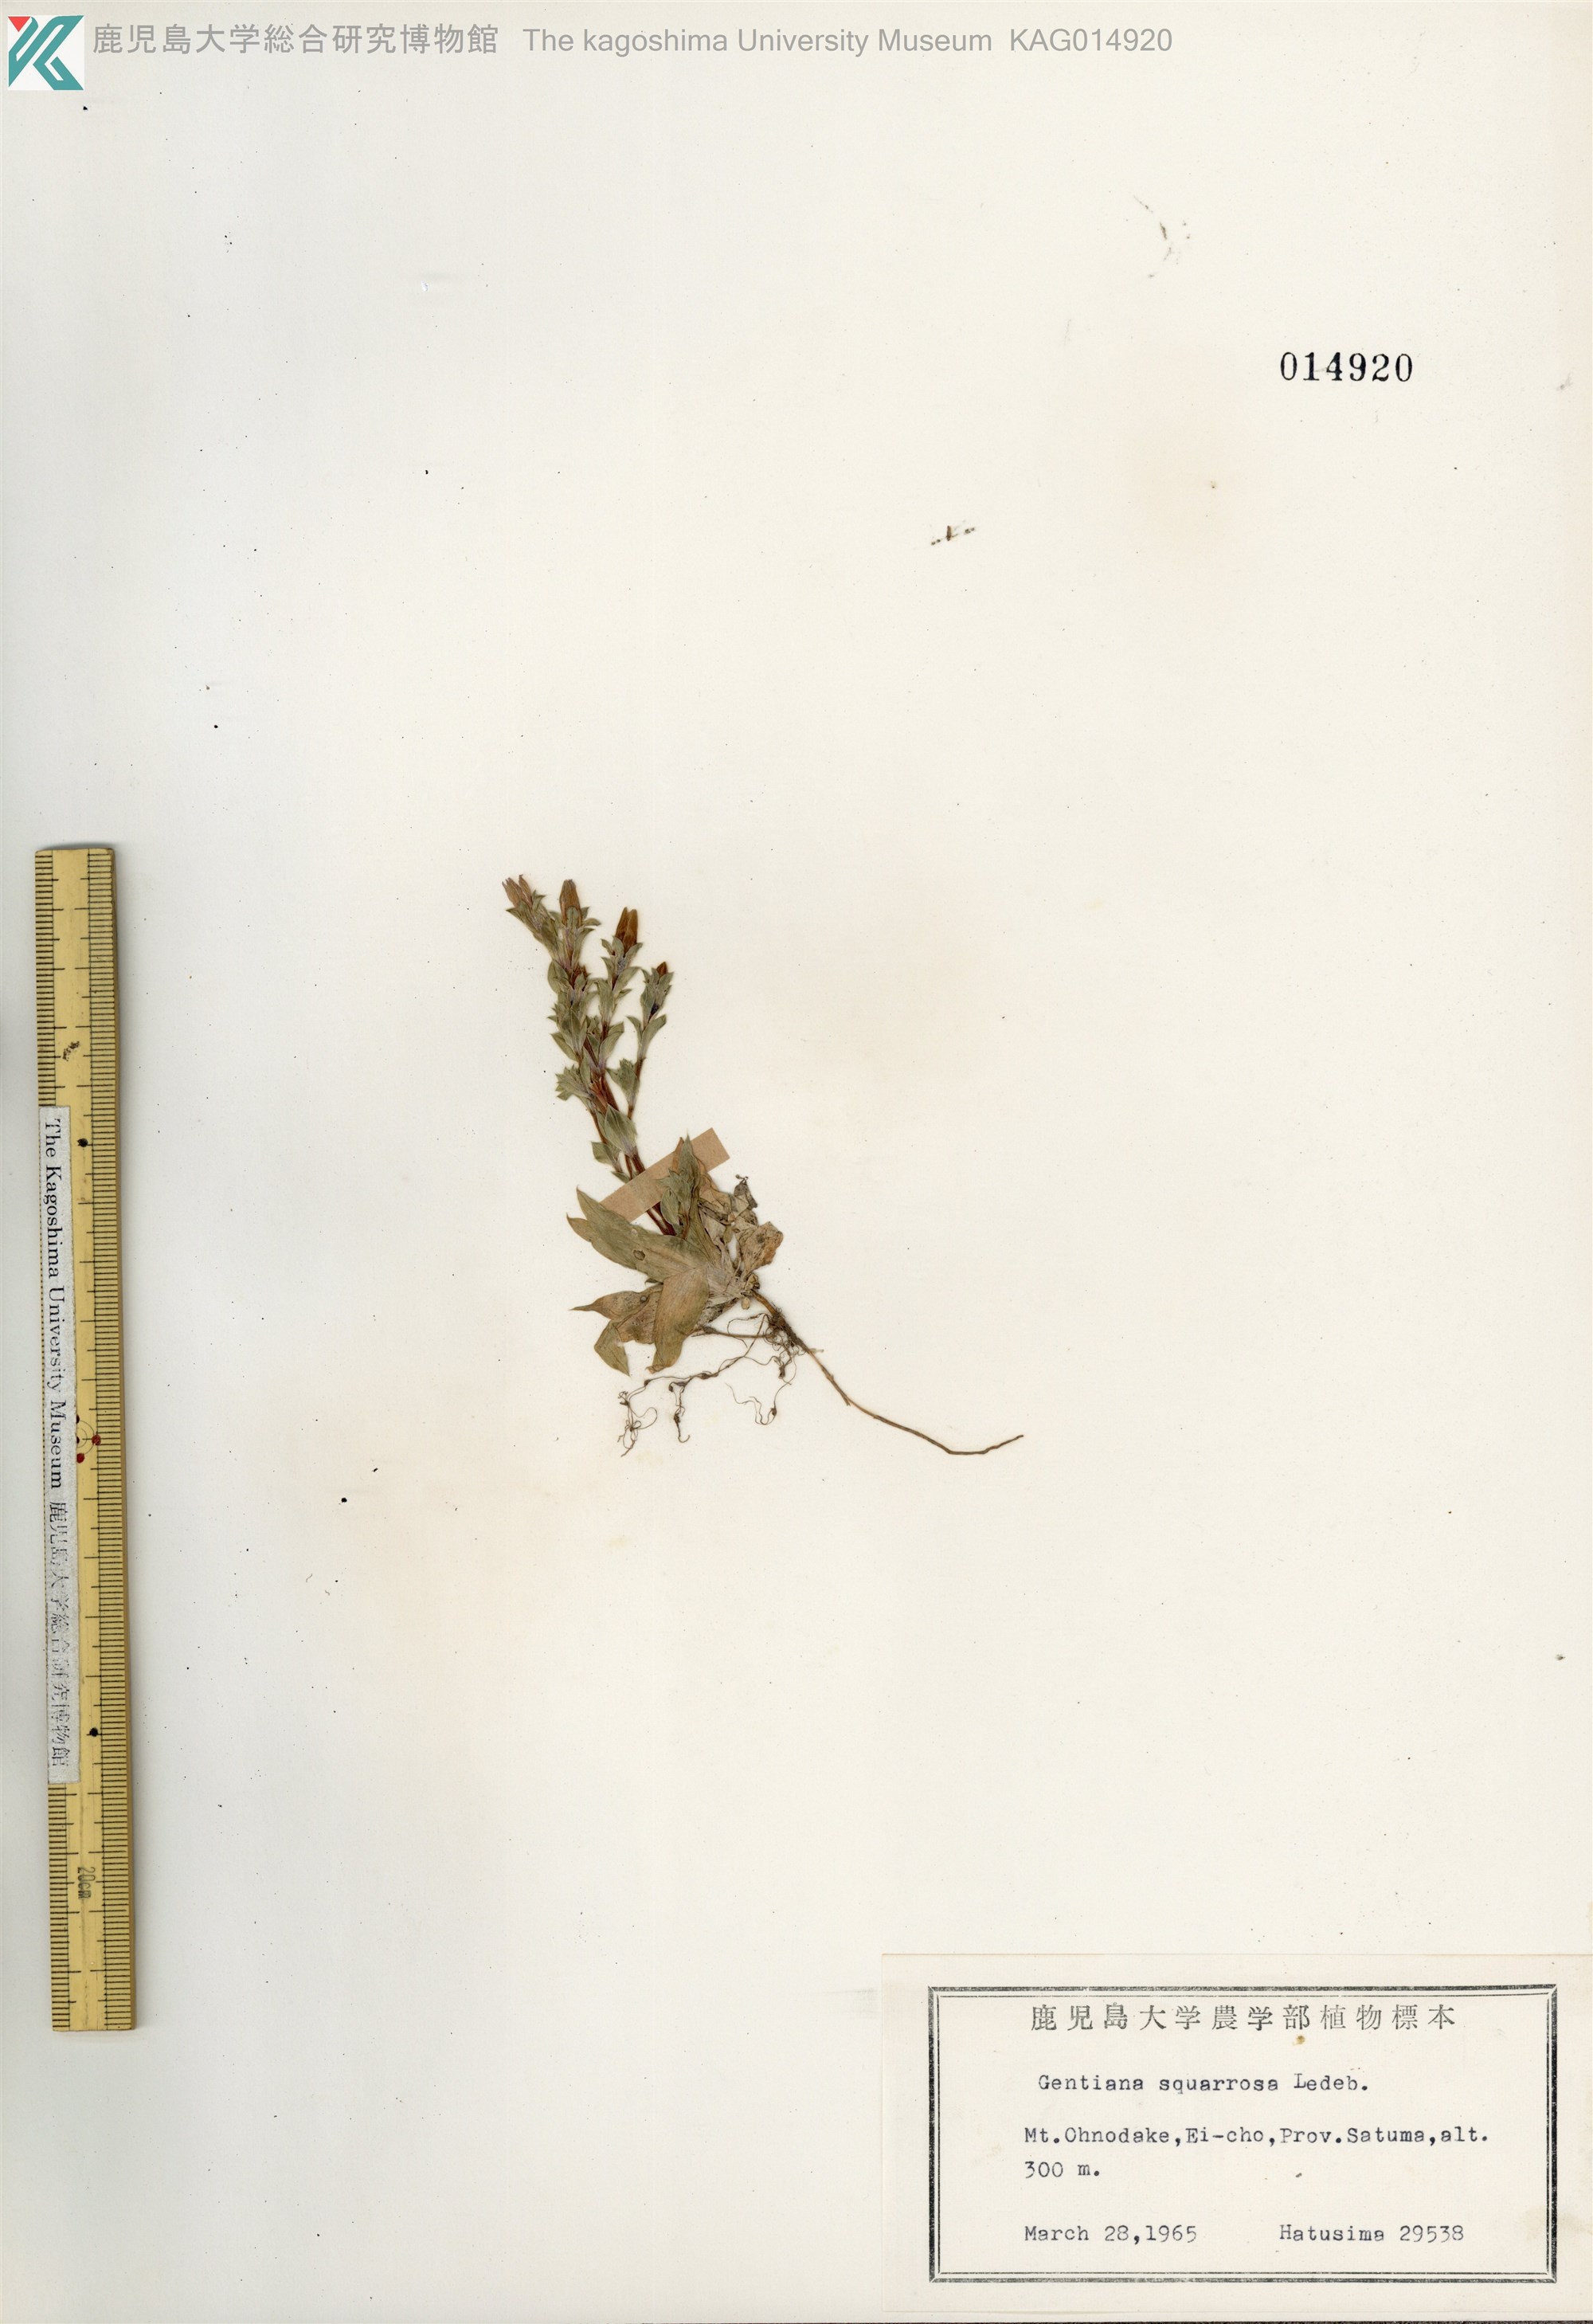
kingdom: Plantae
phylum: Tracheophyta
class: Magnoliopsida
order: Gentianales
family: Gentianaceae
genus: Gentiana
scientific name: Gentiana squarrosa
